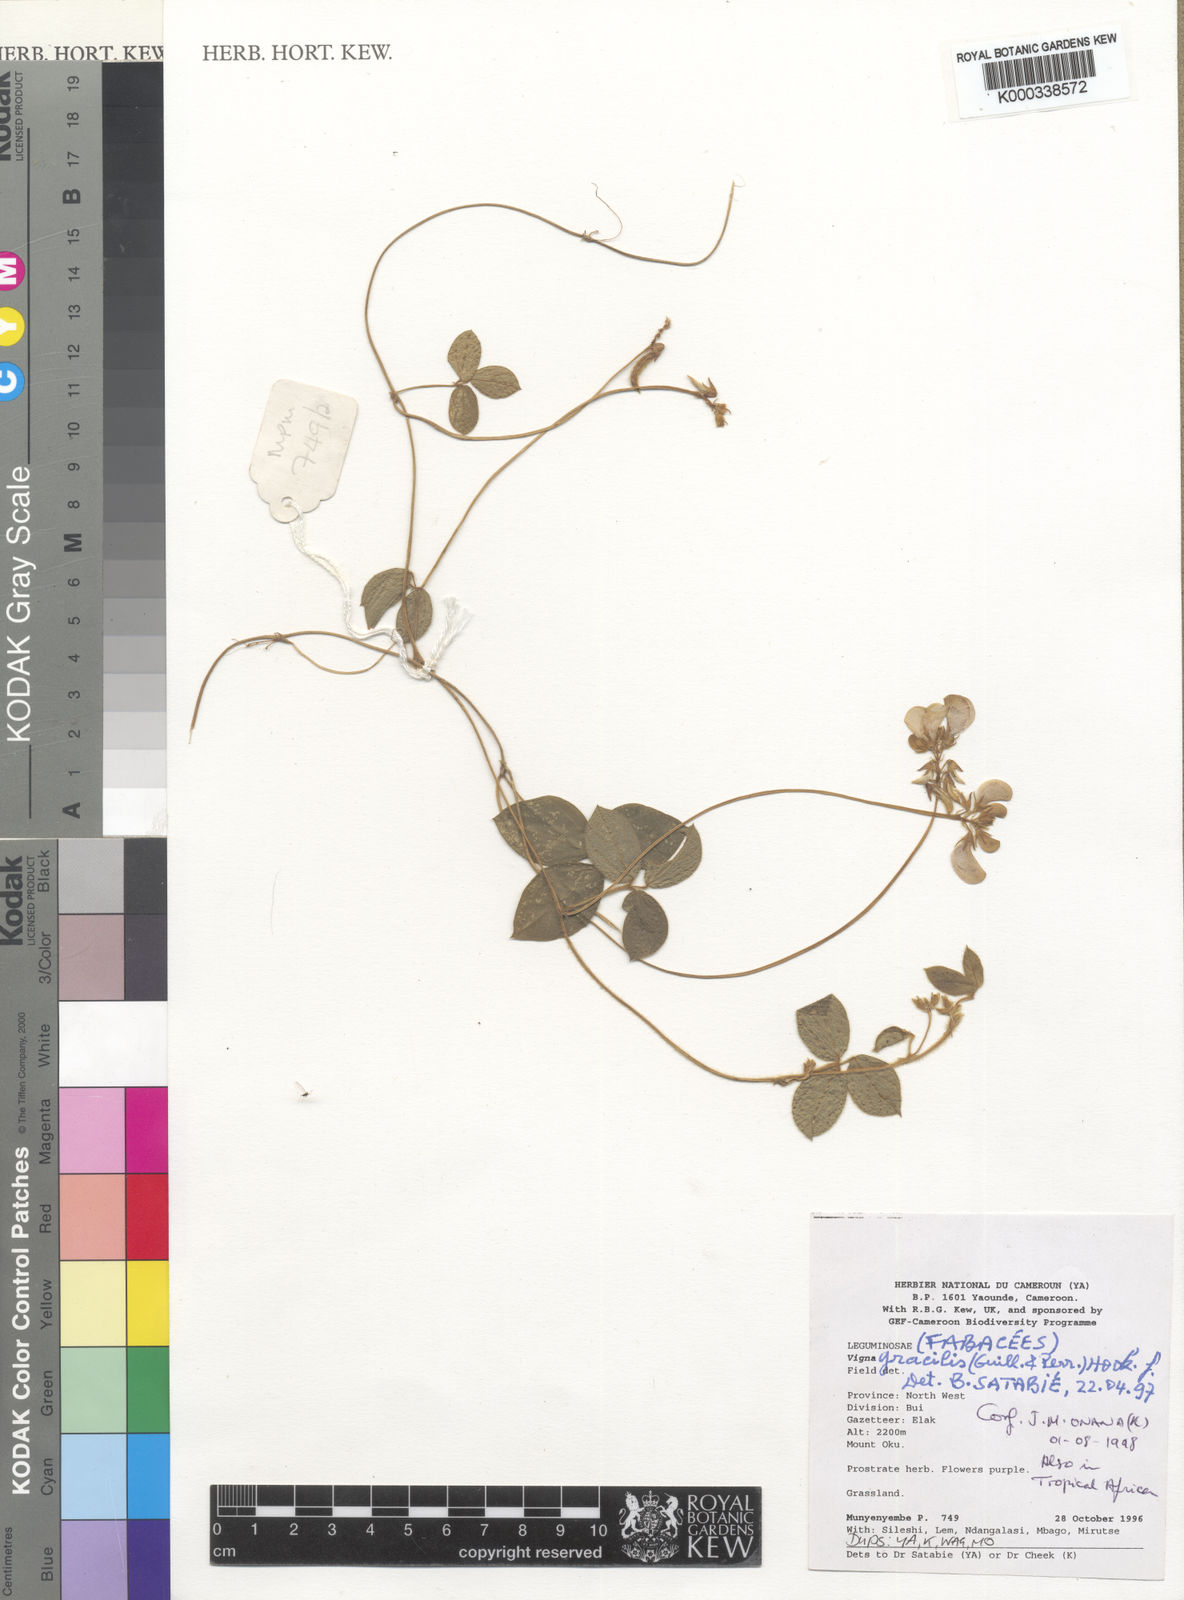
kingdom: Plantae
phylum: Tracheophyta
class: Magnoliopsida
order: Fabales
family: Fabaceae
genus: Vigna
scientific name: Vigna gracilis
